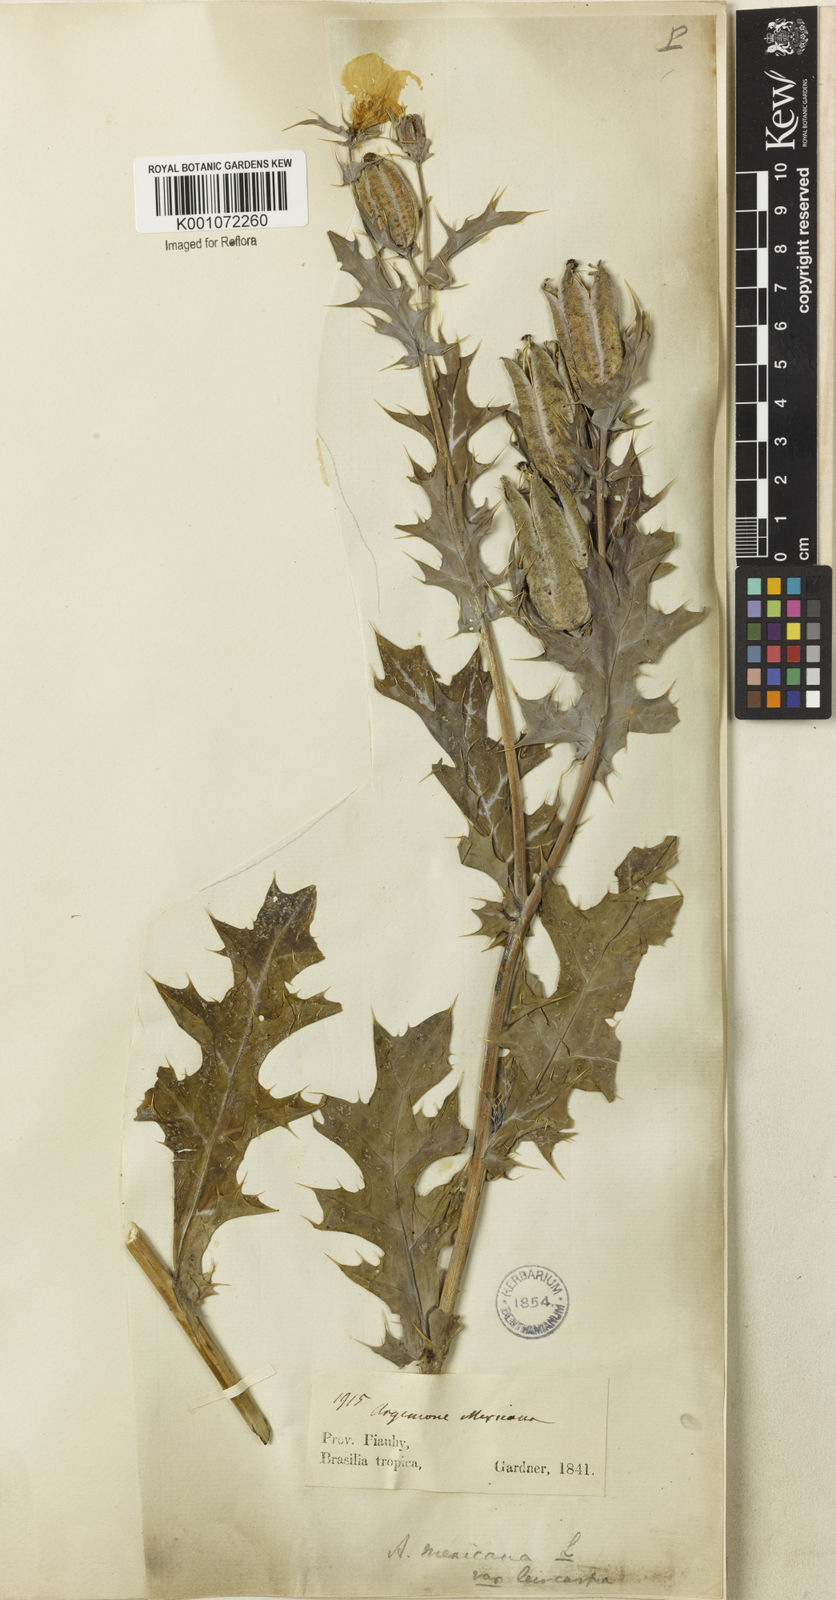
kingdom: Plantae
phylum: Tracheophyta
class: Magnoliopsida
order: Ranunculales
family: Papaveraceae
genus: Argemone
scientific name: Argemone mexicana
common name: Mexican poppy
